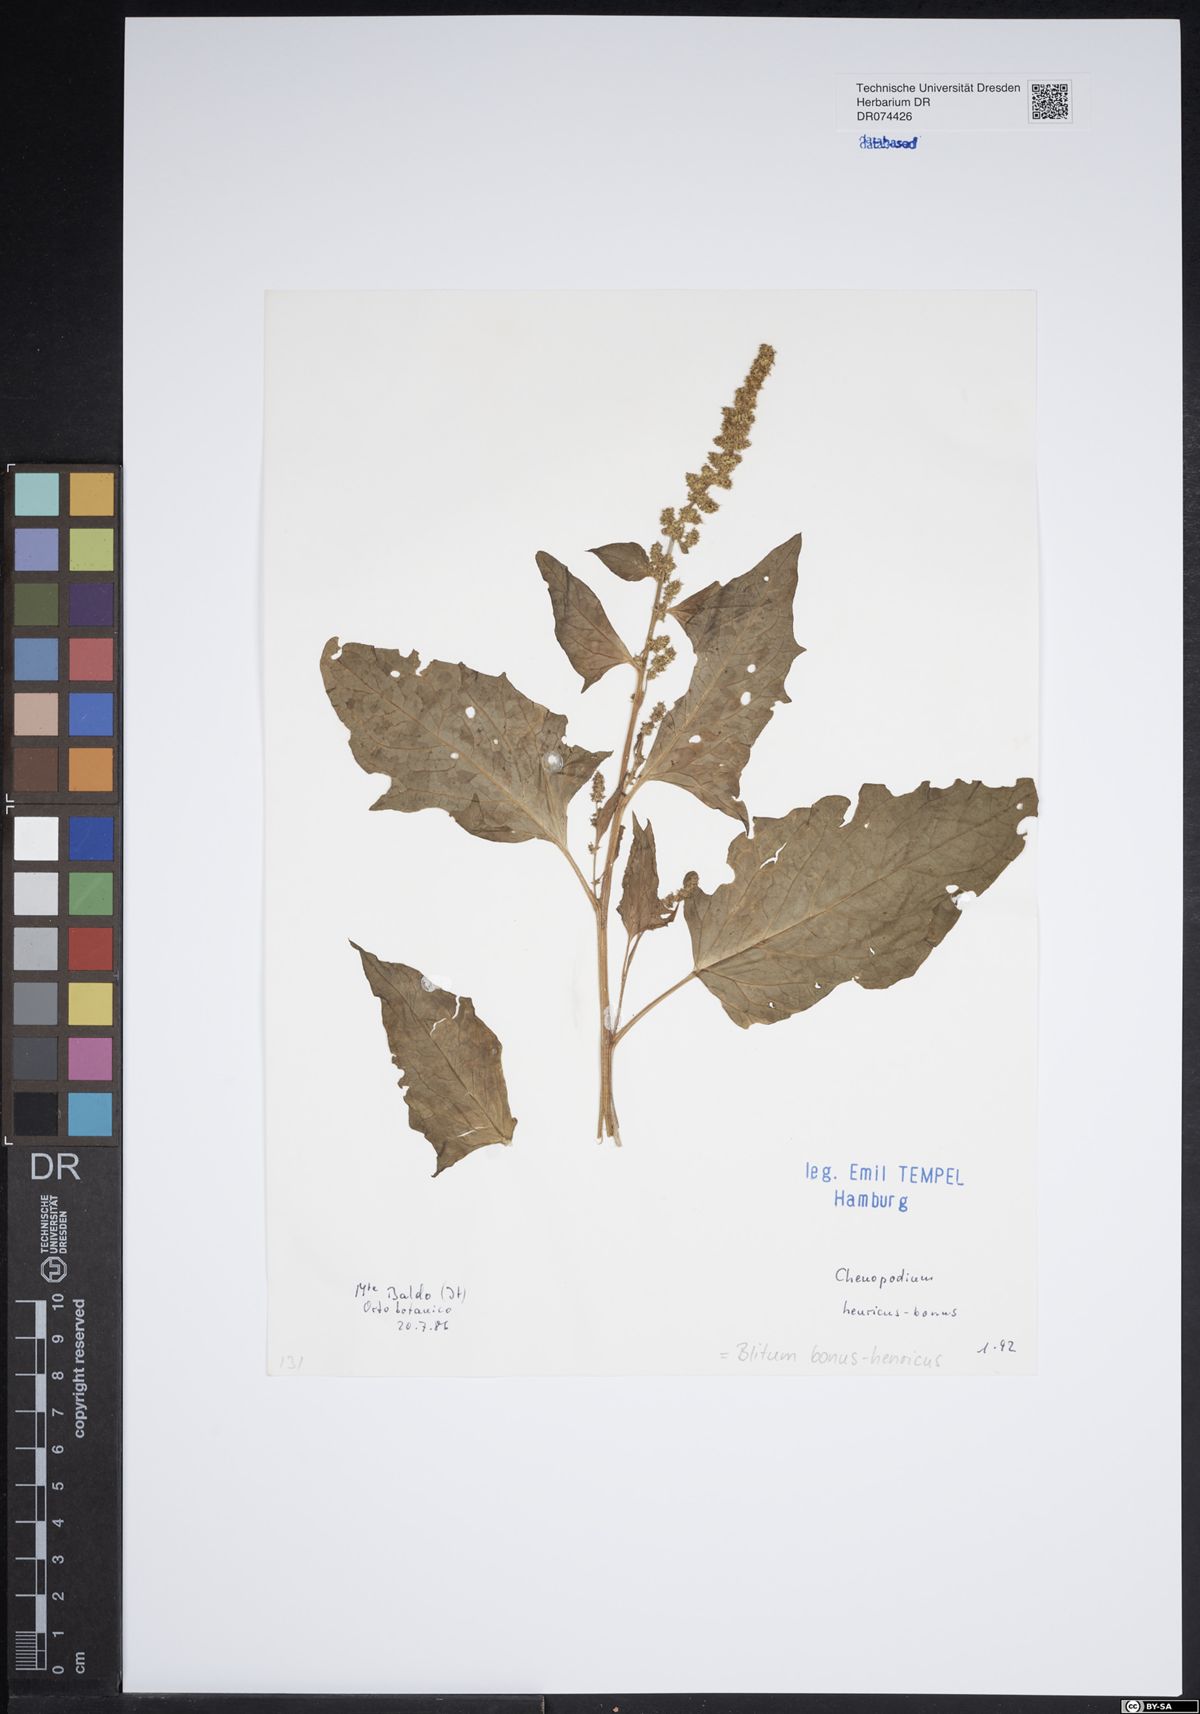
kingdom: Plantae
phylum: Tracheophyta
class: Magnoliopsida
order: Caryophyllales
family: Amaranthaceae
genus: Blitum
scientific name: Blitum bonus-henricus
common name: Good king henry
